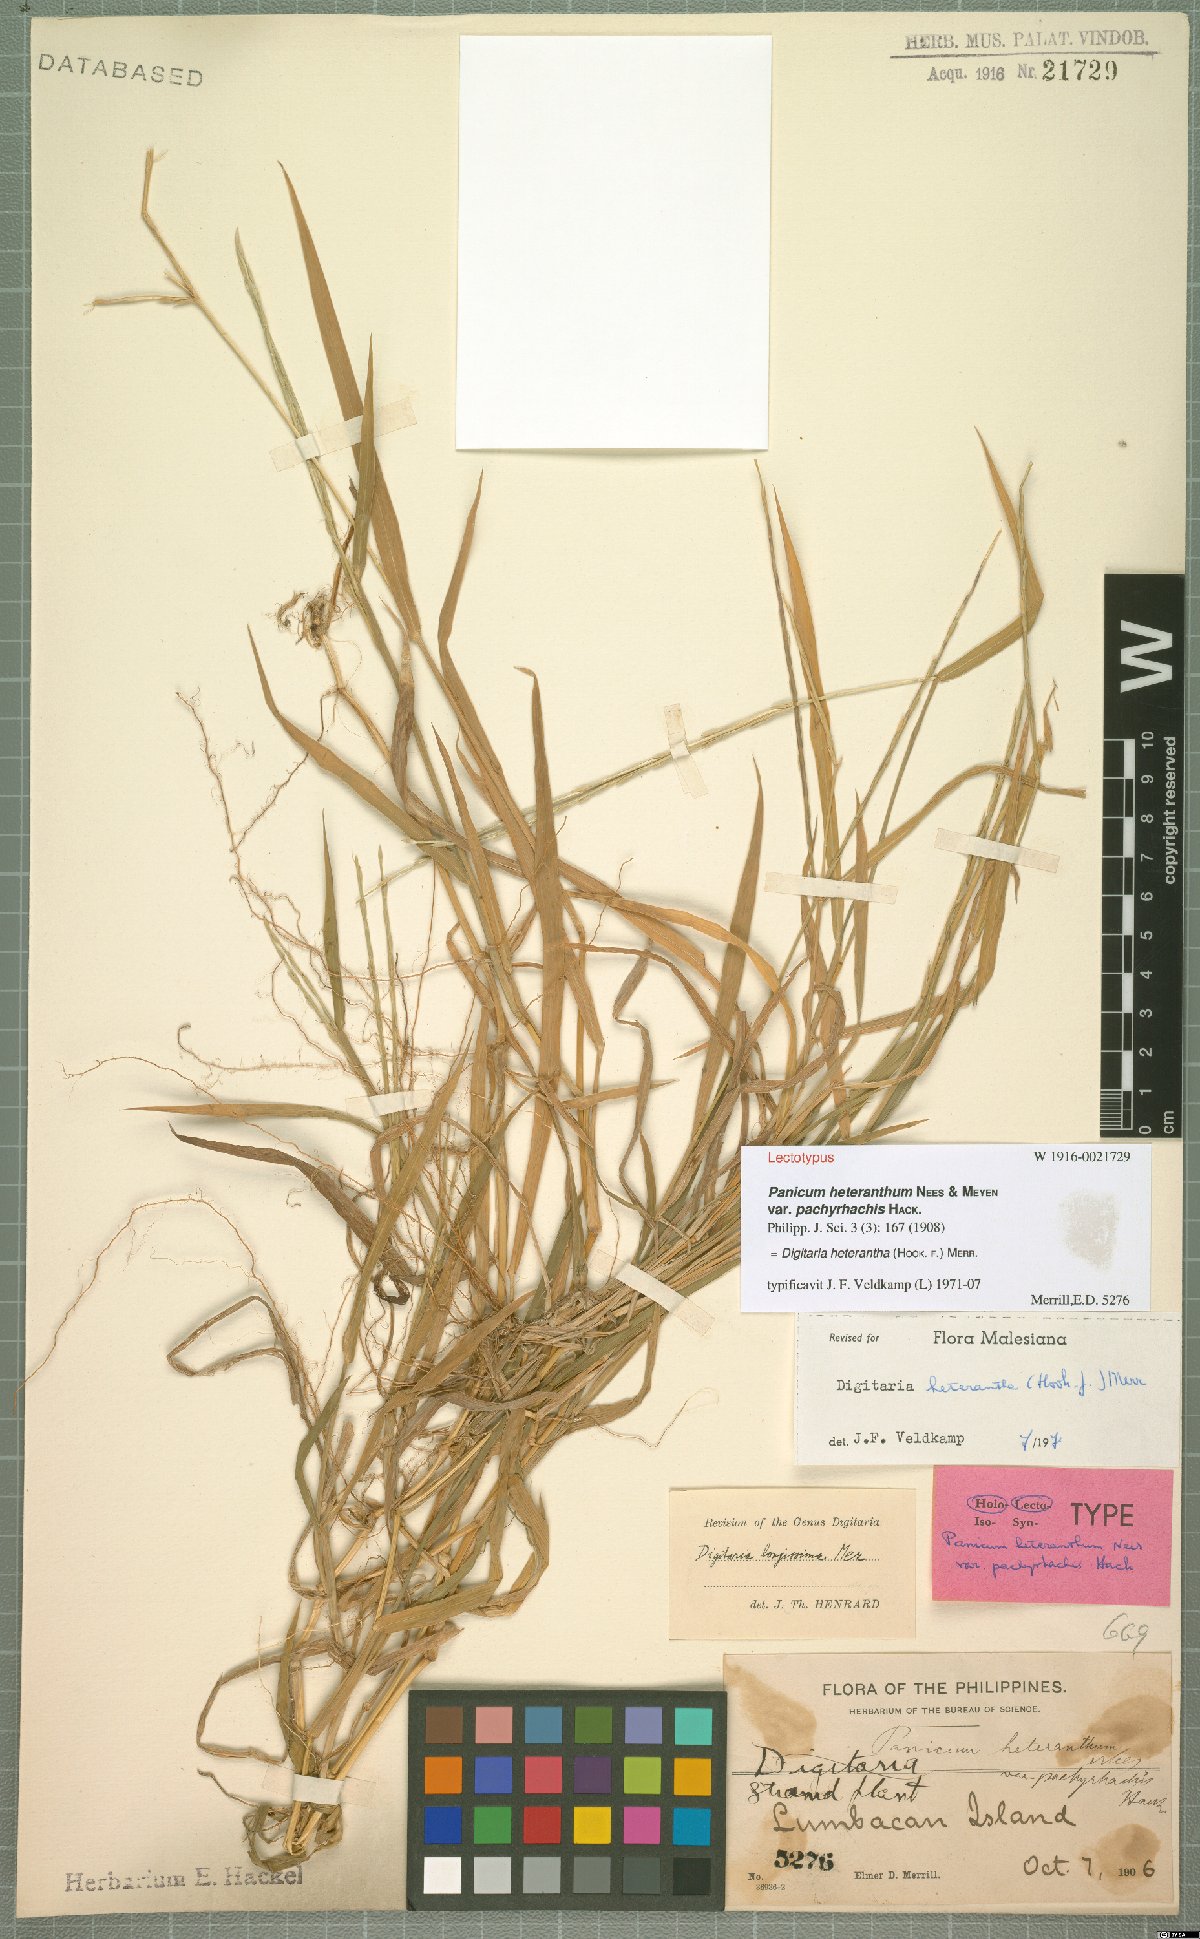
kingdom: Plantae
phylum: Tracheophyta
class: Liliopsida
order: Poales
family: Poaceae
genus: Digitaria
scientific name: Digitaria heterantha
